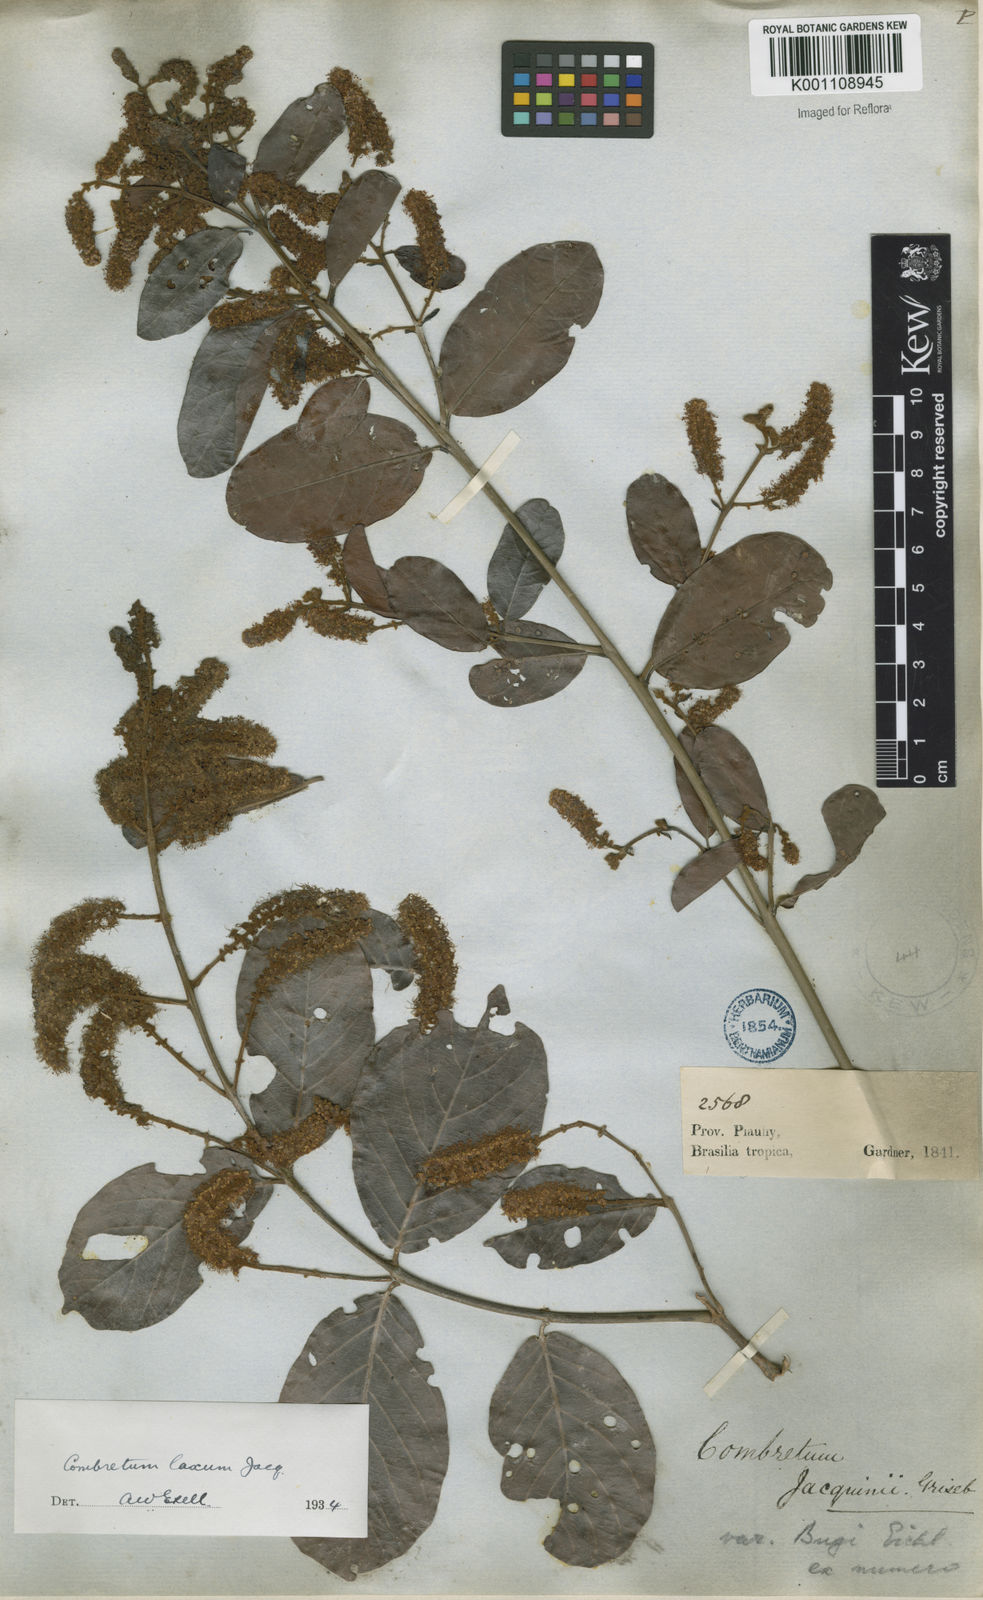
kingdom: Plantae
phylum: Tracheophyta
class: Magnoliopsida
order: Myrtales
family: Combretaceae
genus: Combretum
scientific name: Combretum laxum
